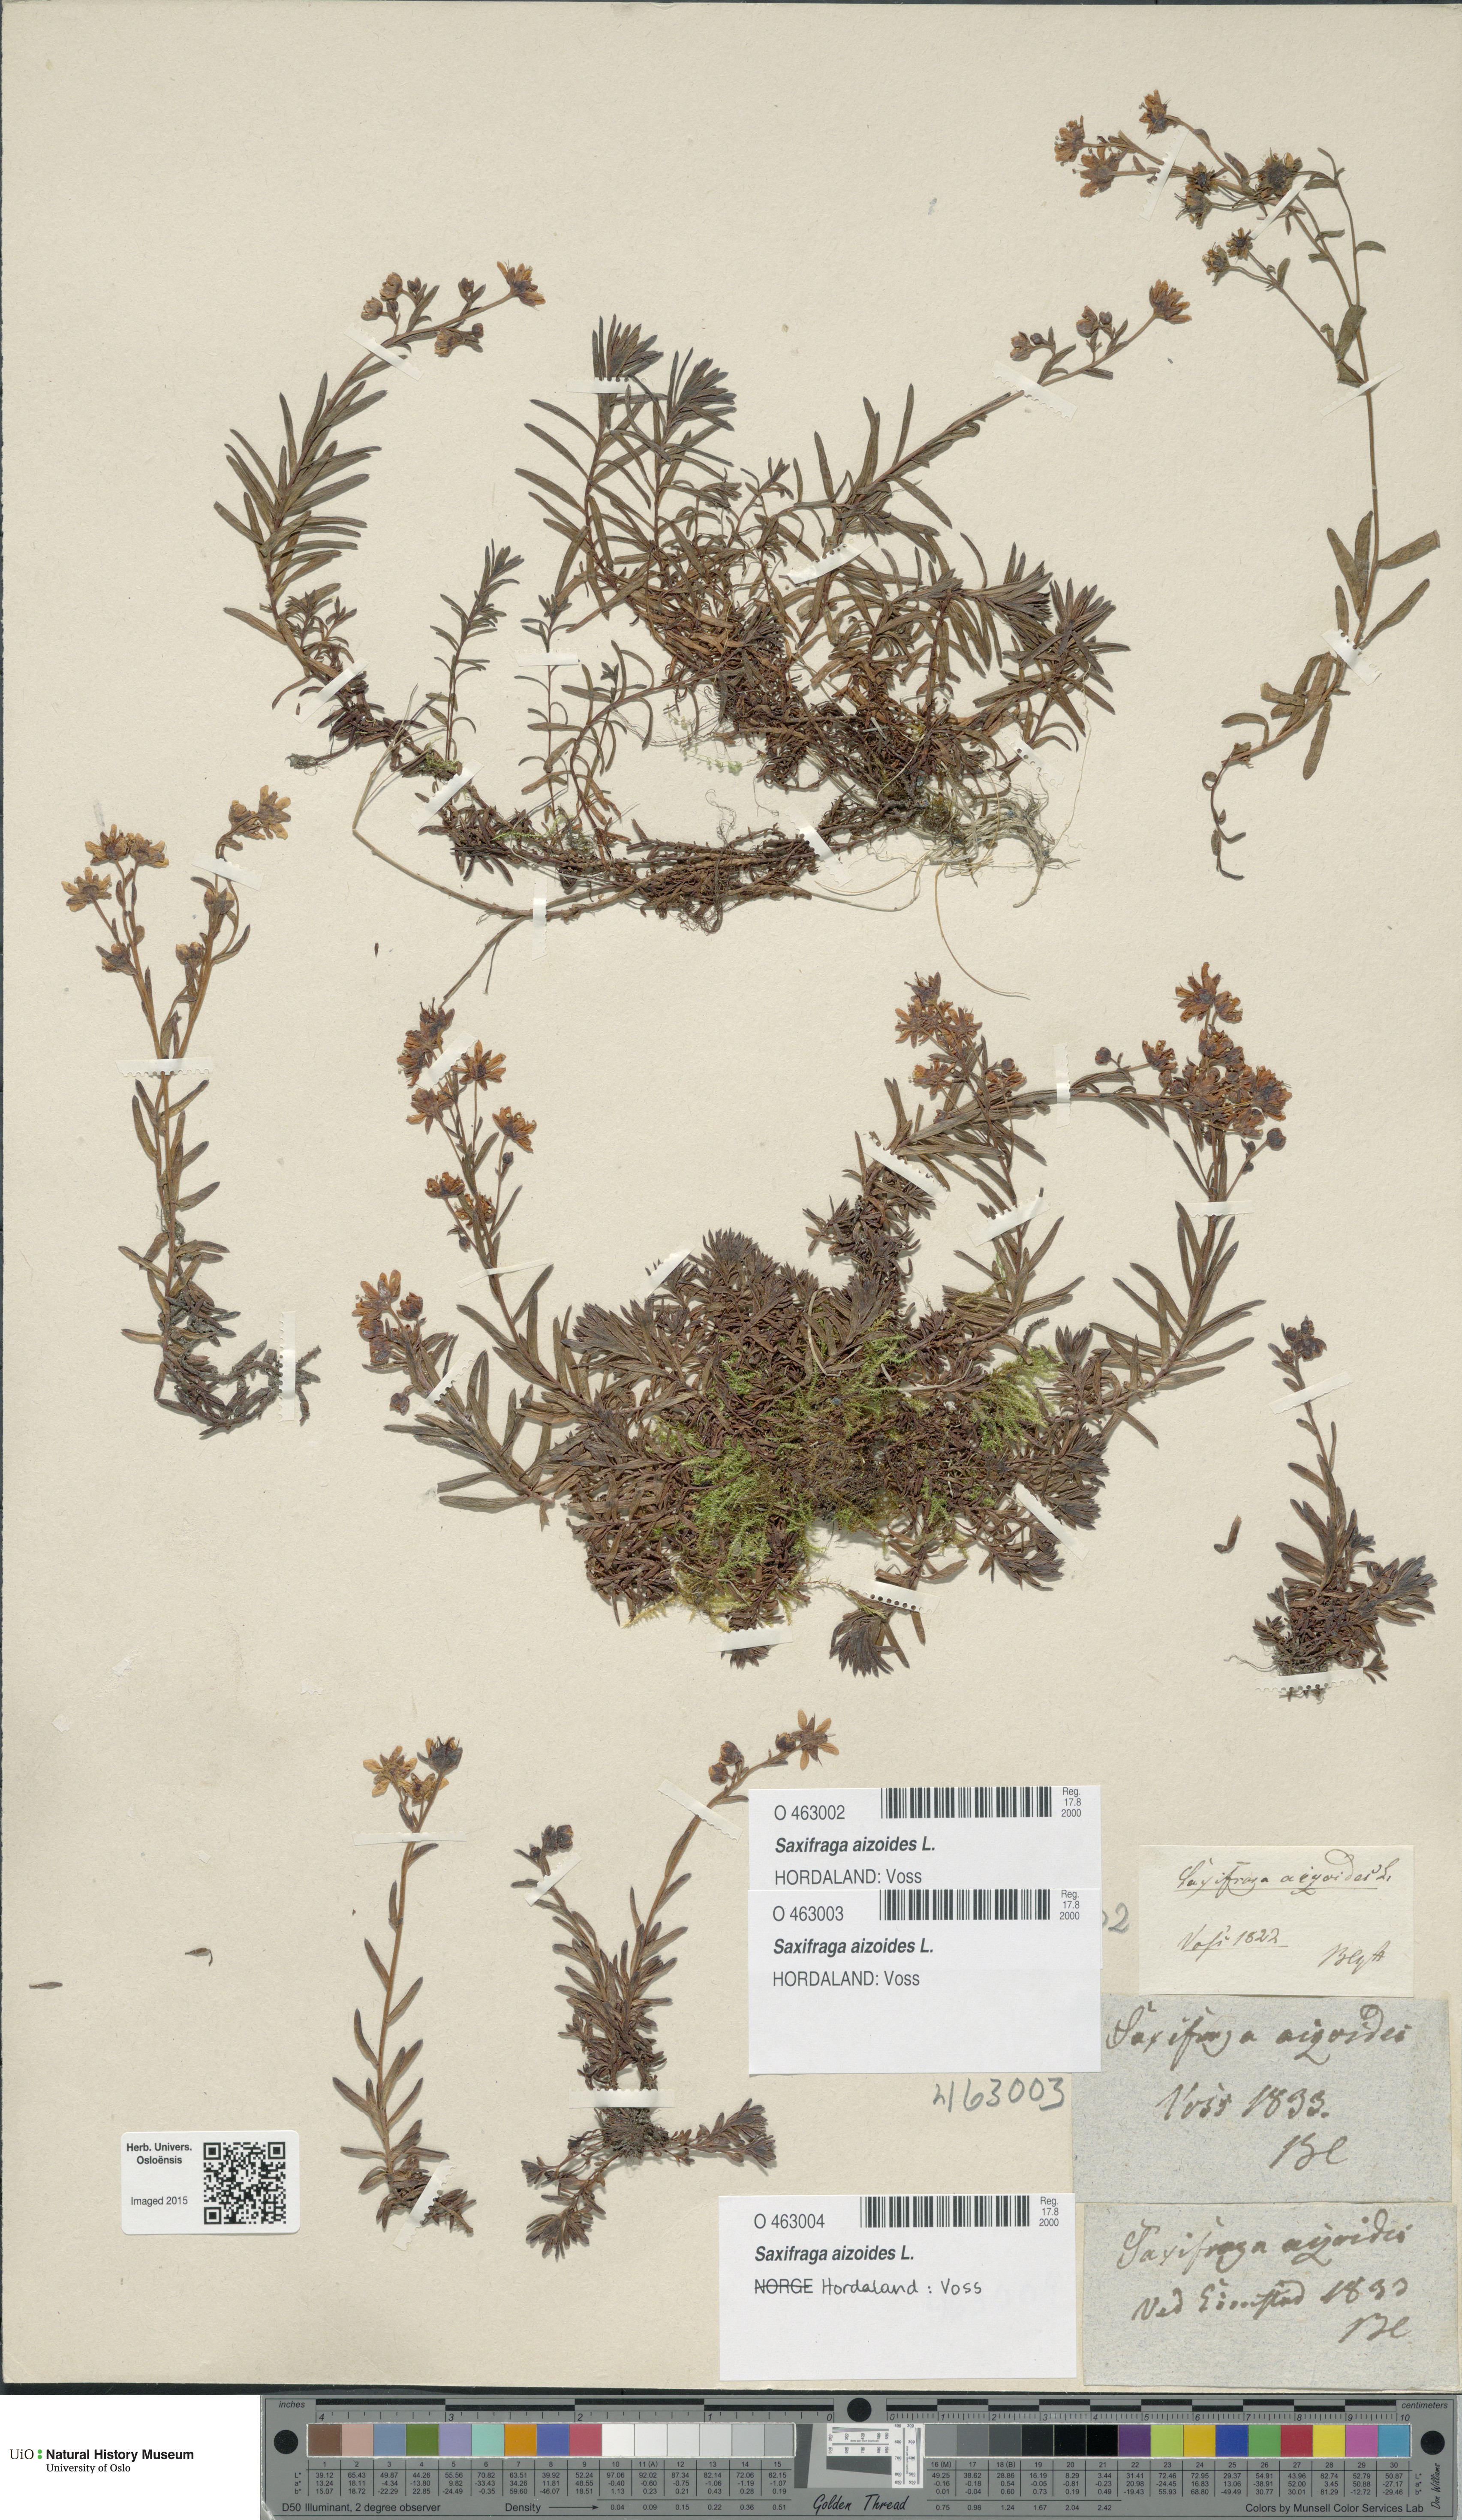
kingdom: Plantae
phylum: Tracheophyta
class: Magnoliopsida
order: Saxifragales
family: Saxifragaceae
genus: Saxifraga
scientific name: Saxifraga aizoides
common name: Yellow mountain saxifrage
